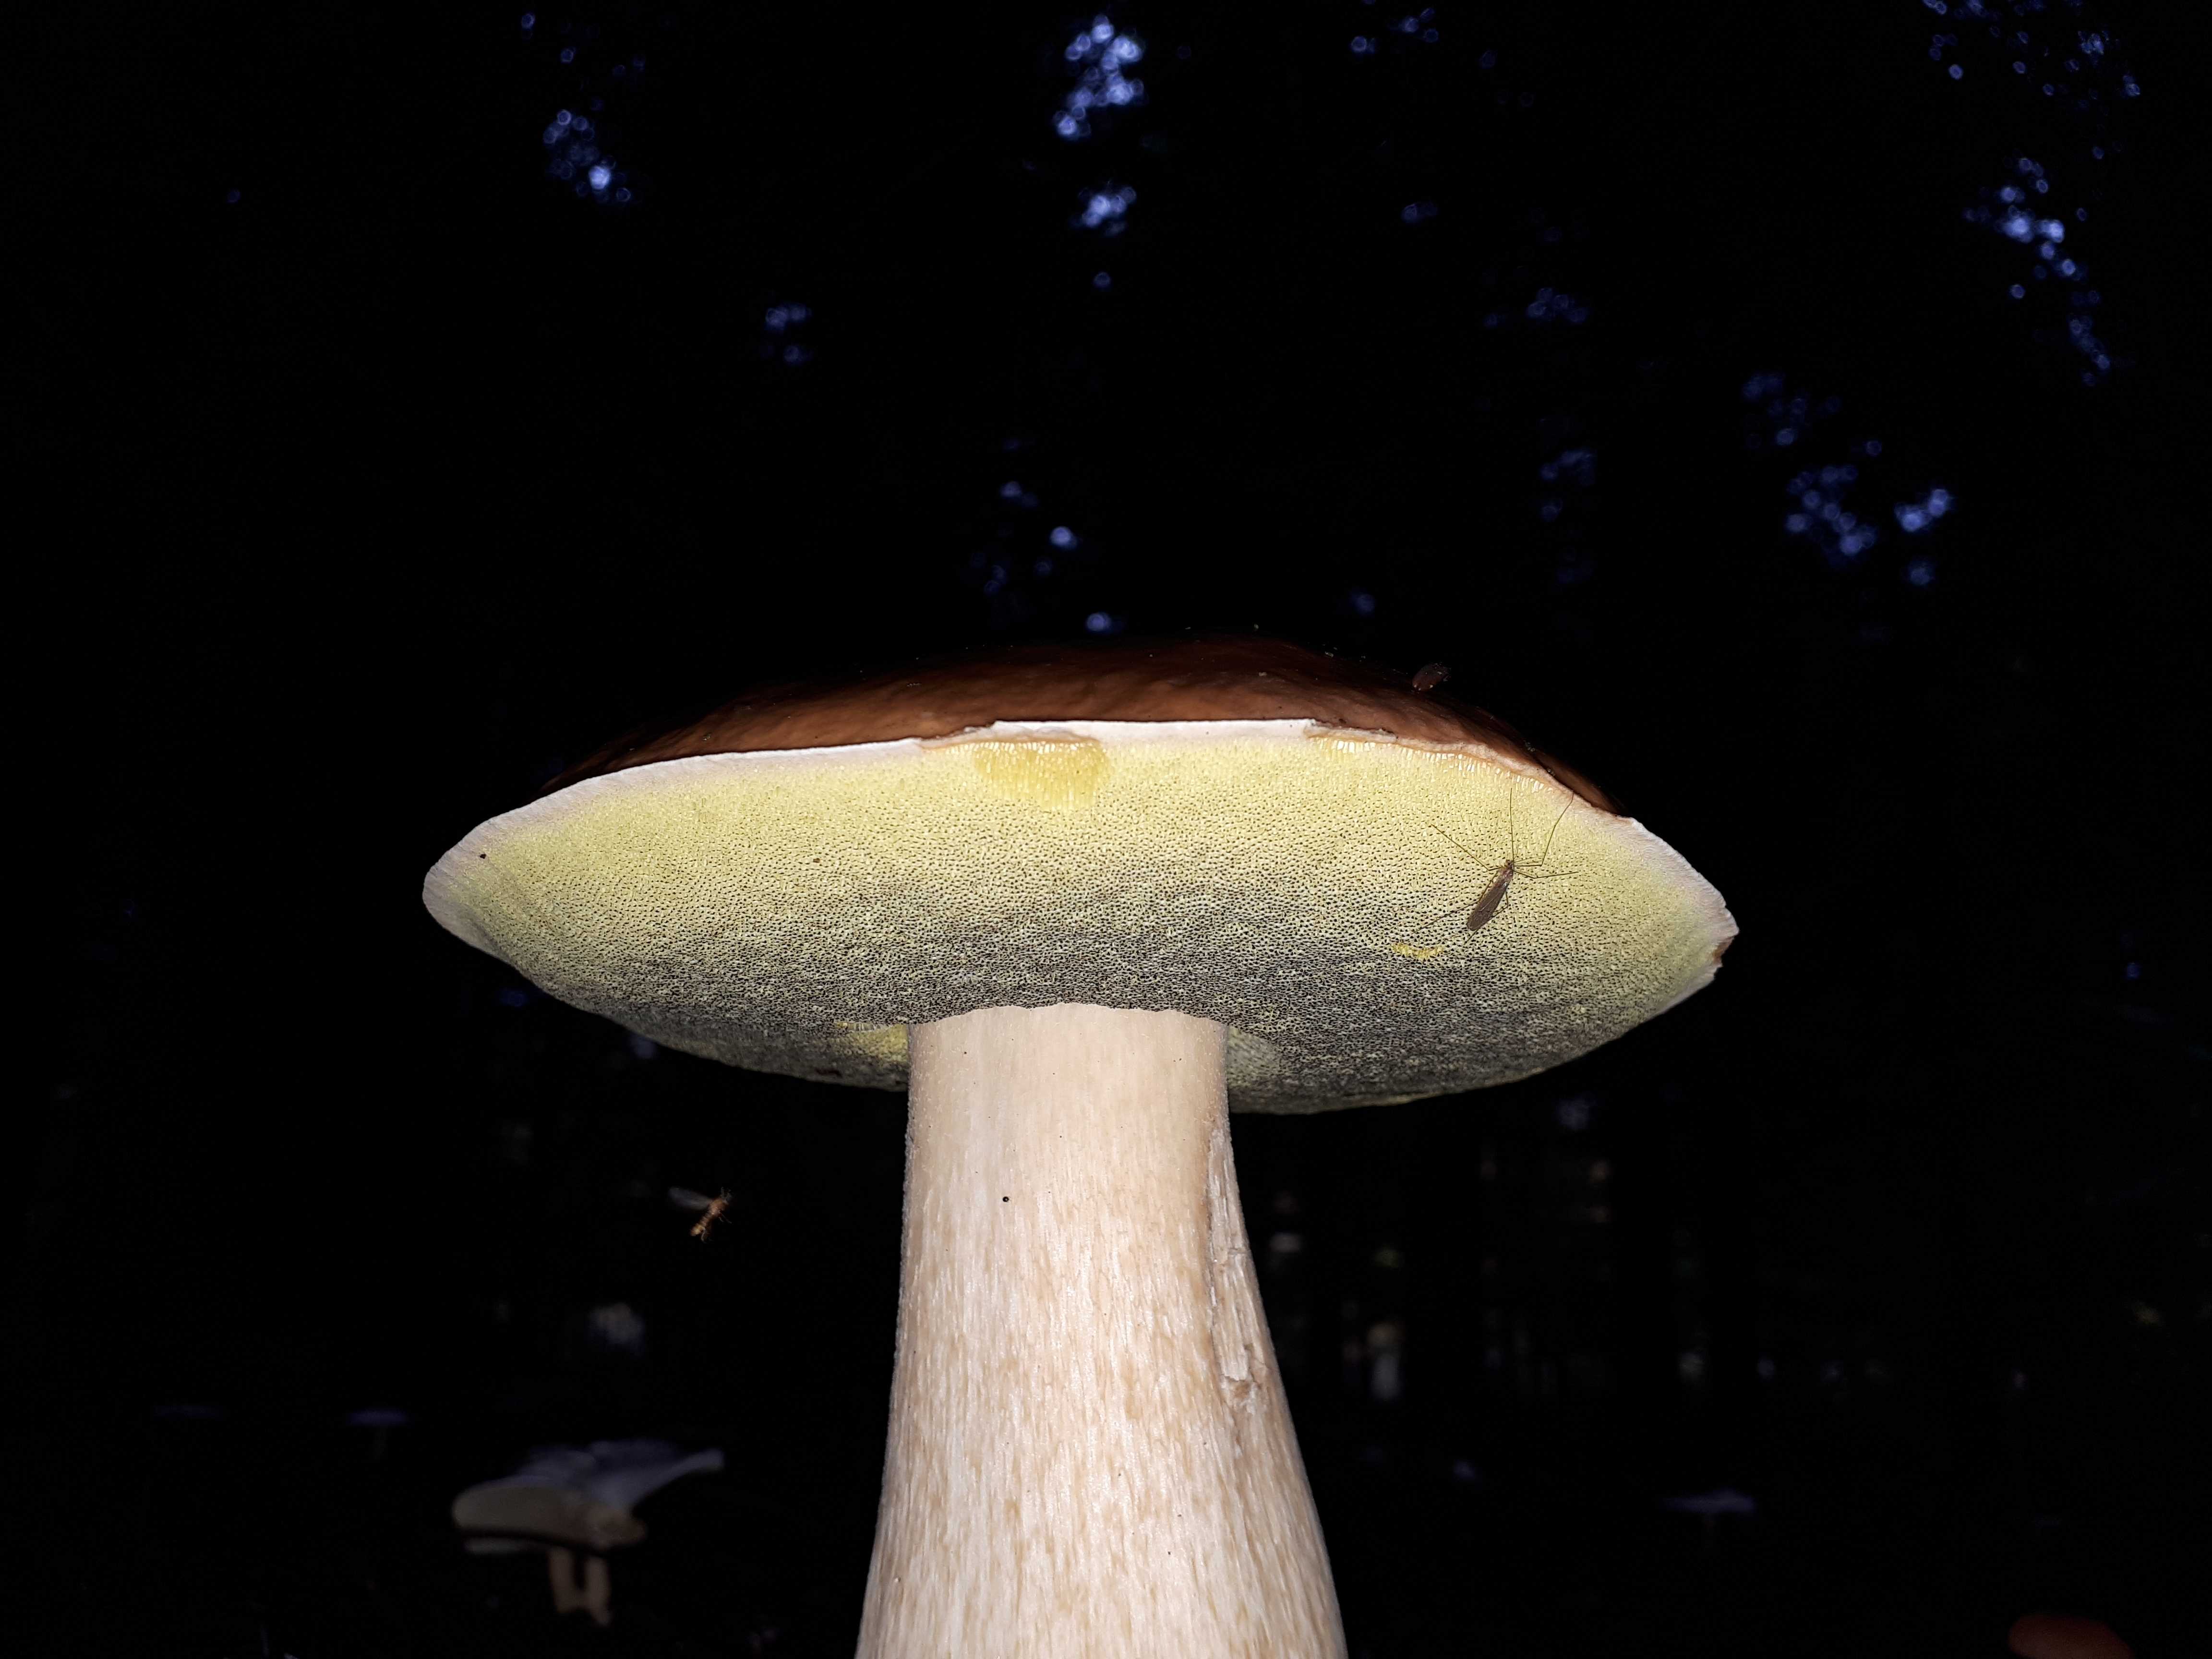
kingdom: Fungi
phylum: Basidiomycota
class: Agaricomycetes
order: Boletales
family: Boletaceae
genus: Boletus
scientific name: Boletus edulis
